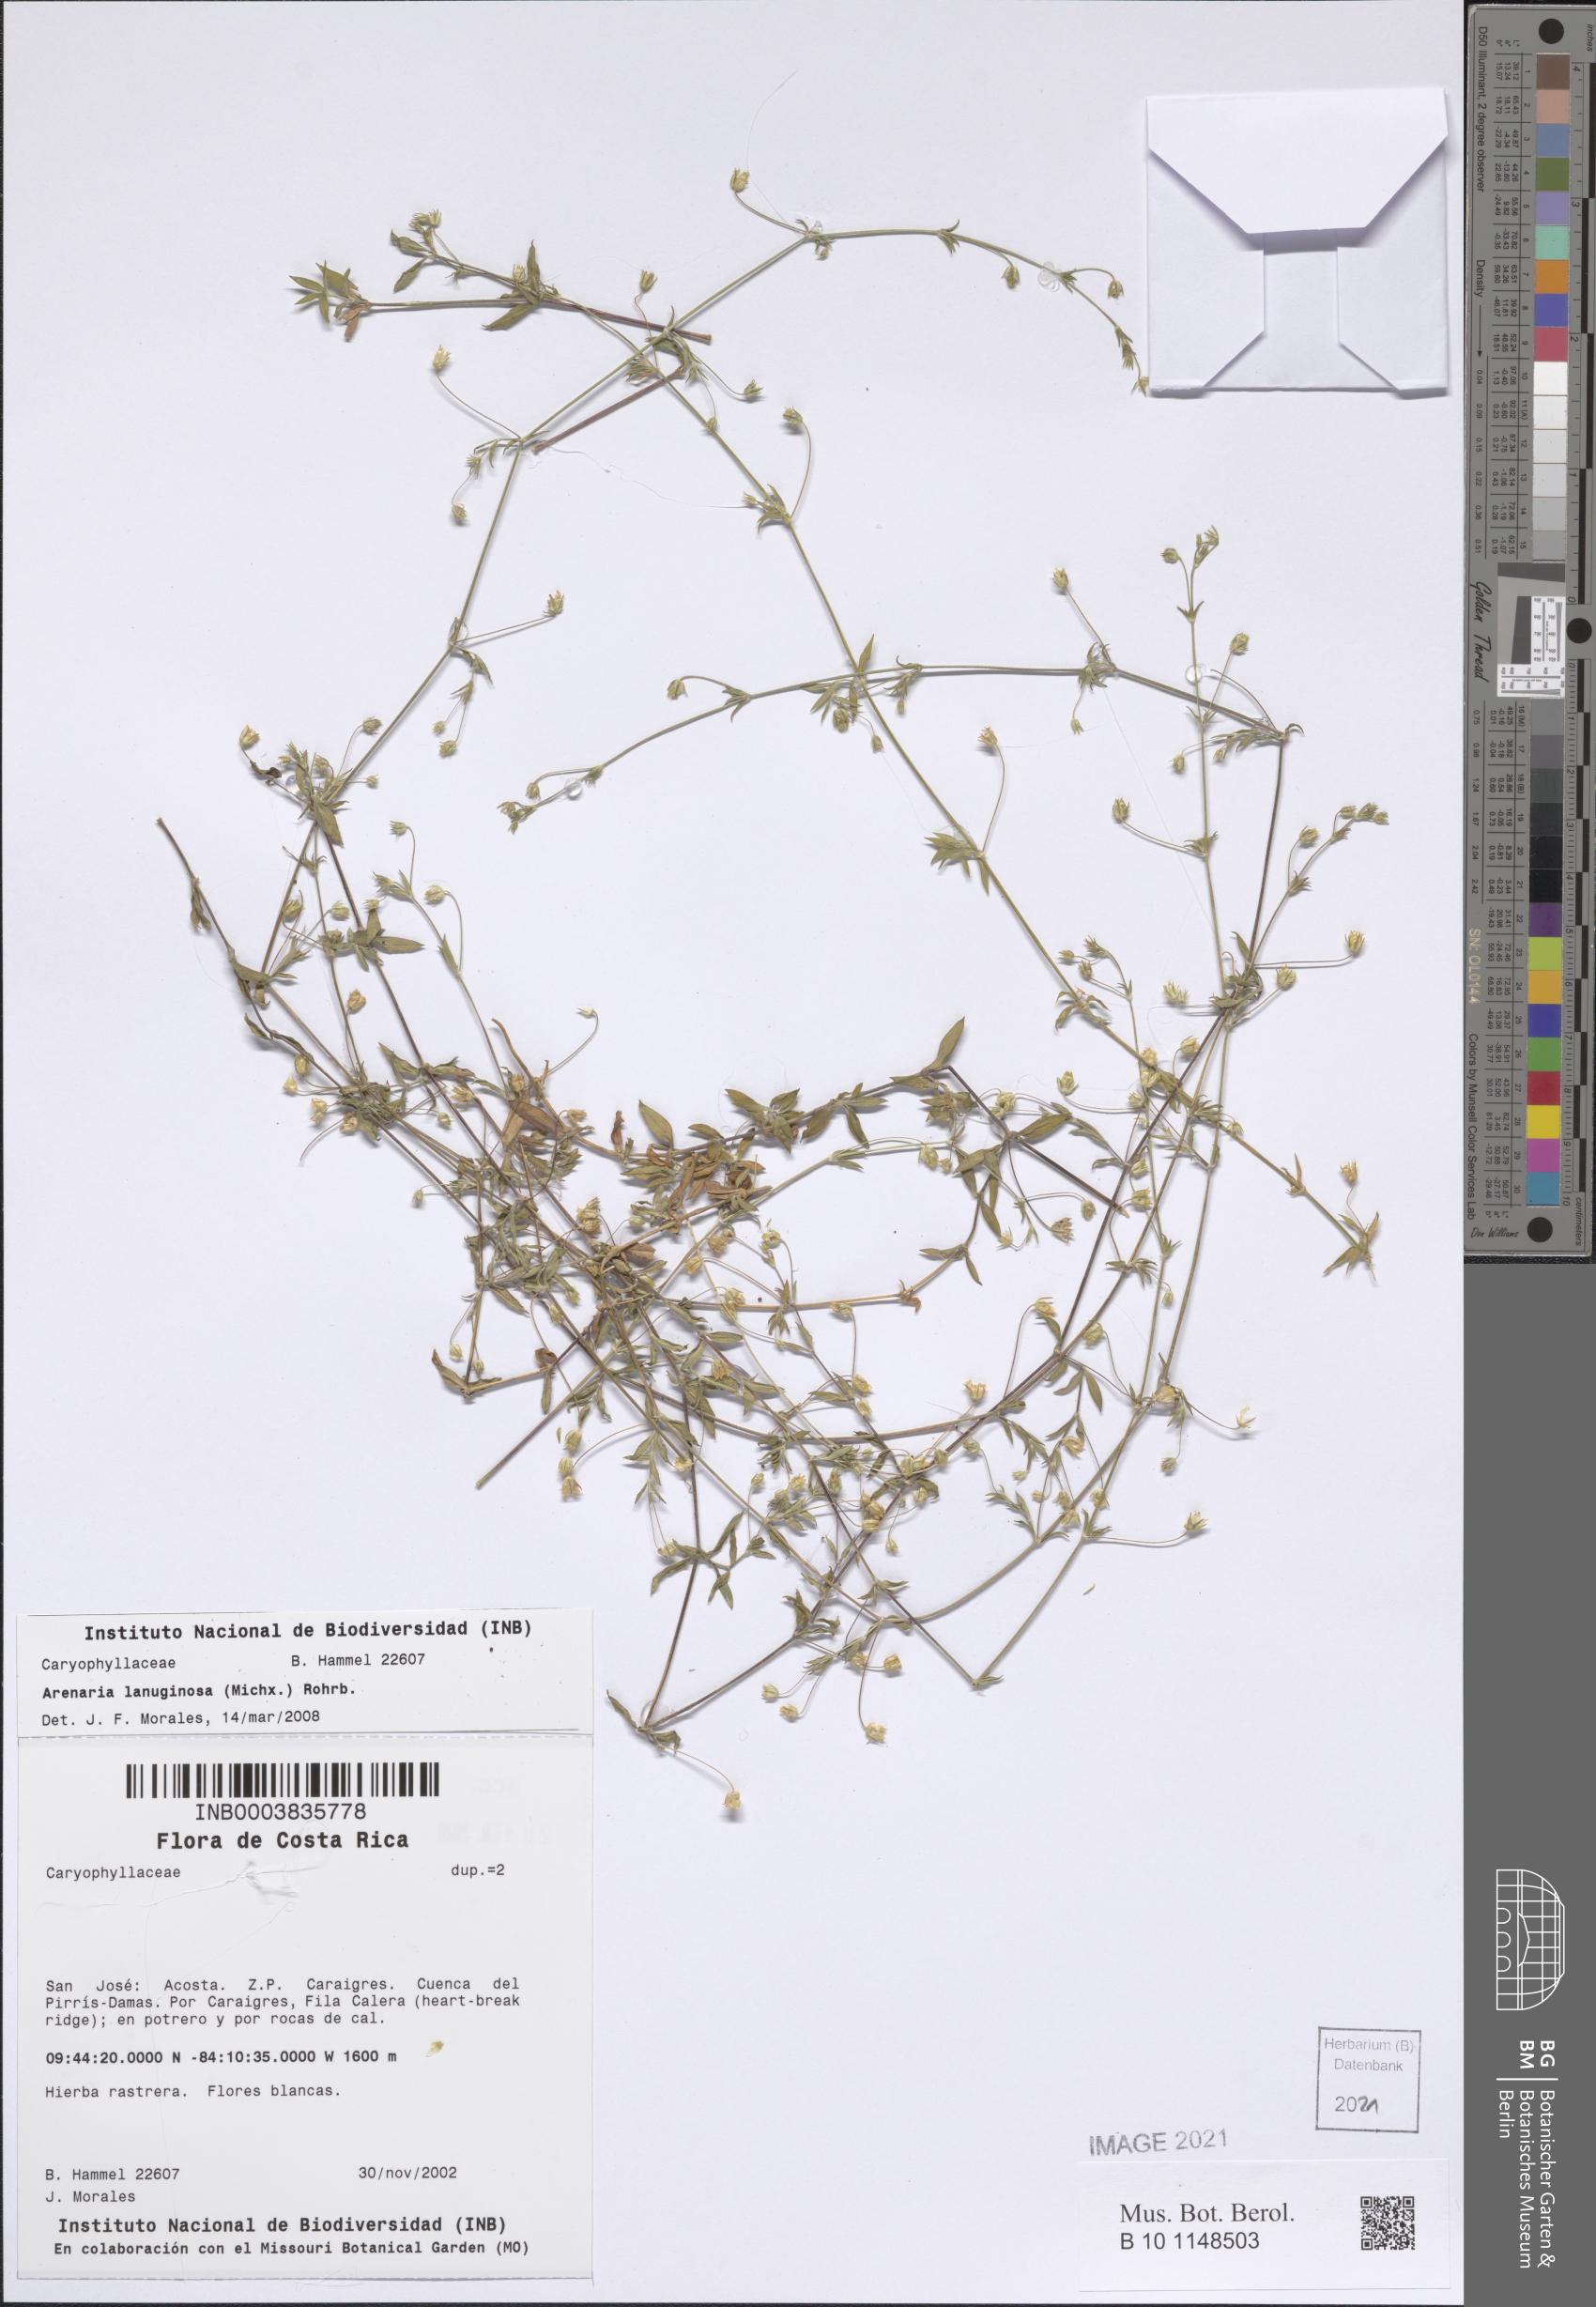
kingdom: Plantae
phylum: Tracheophyta
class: Magnoliopsida
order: Caryophyllales
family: Caryophyllaceae
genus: Arenaria
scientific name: Arenaria lanuginosa
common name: Spread sandwort
